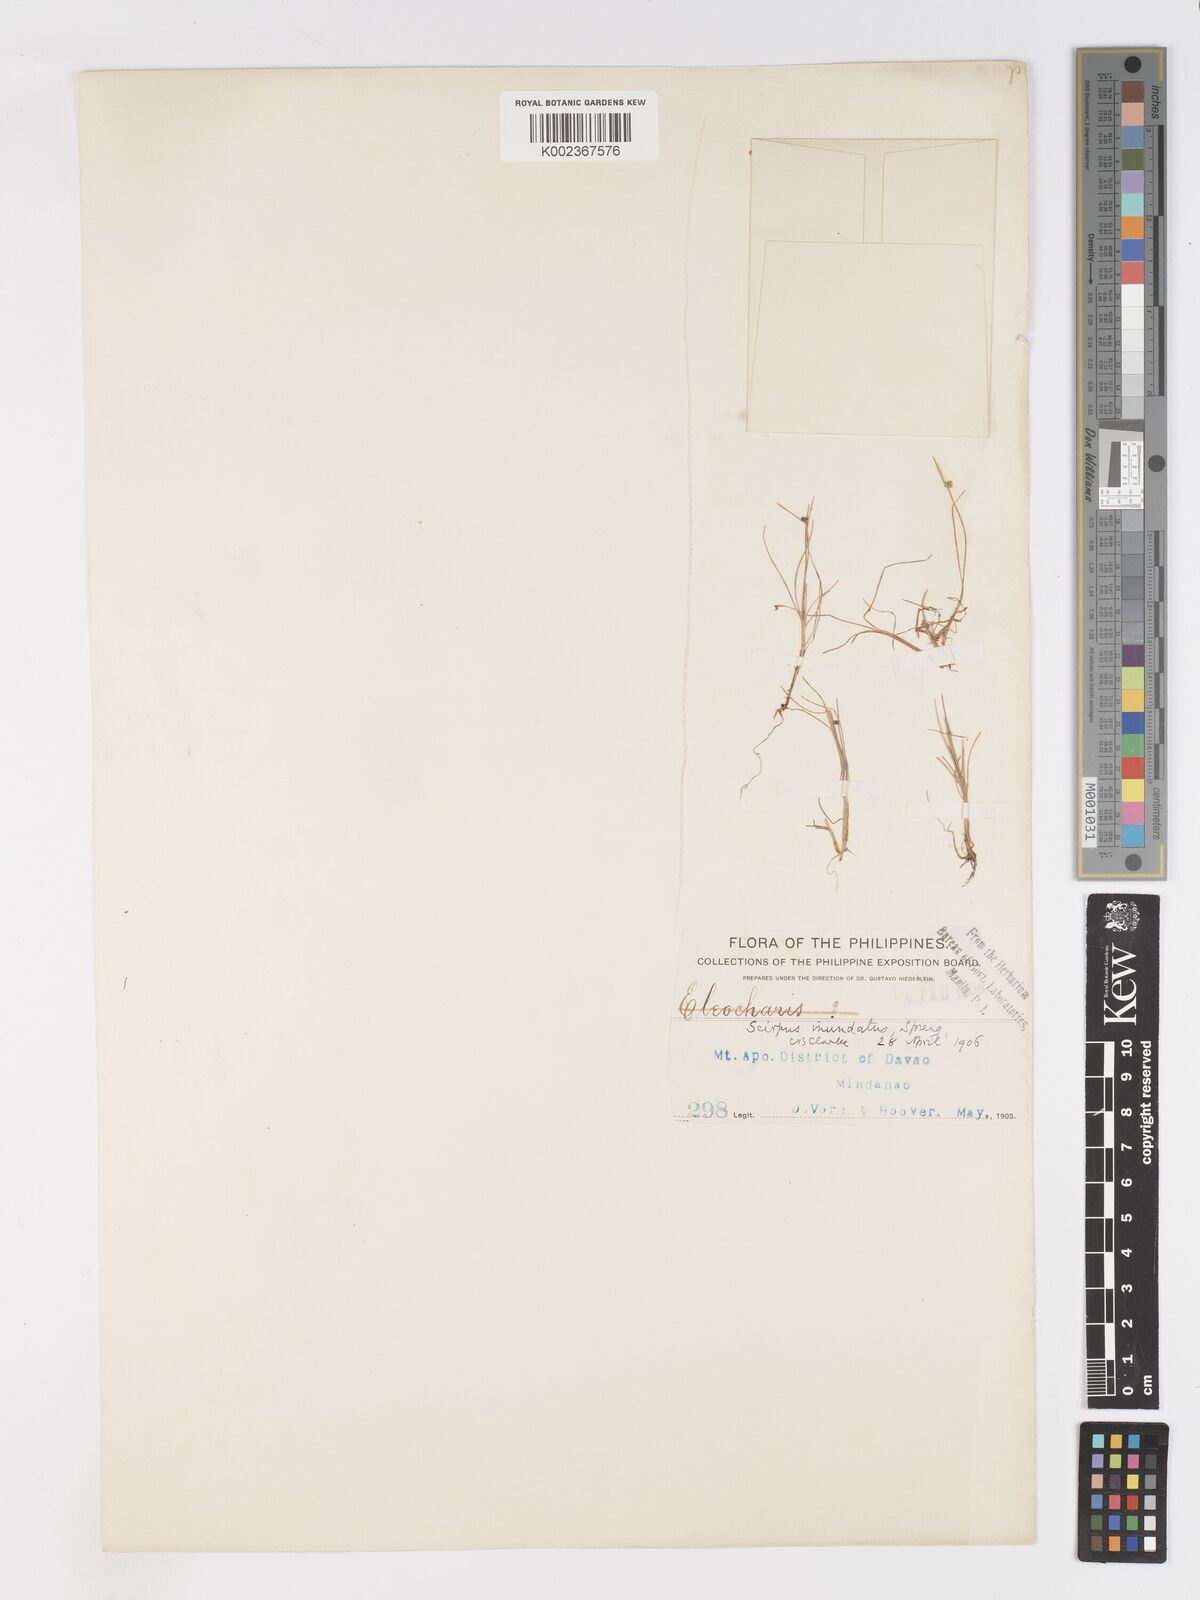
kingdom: Plantae
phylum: Tracheophyta
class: Liliopsida
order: Poales
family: Cyperaceae
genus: Isolepis
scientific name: Isolepis subtilissima
